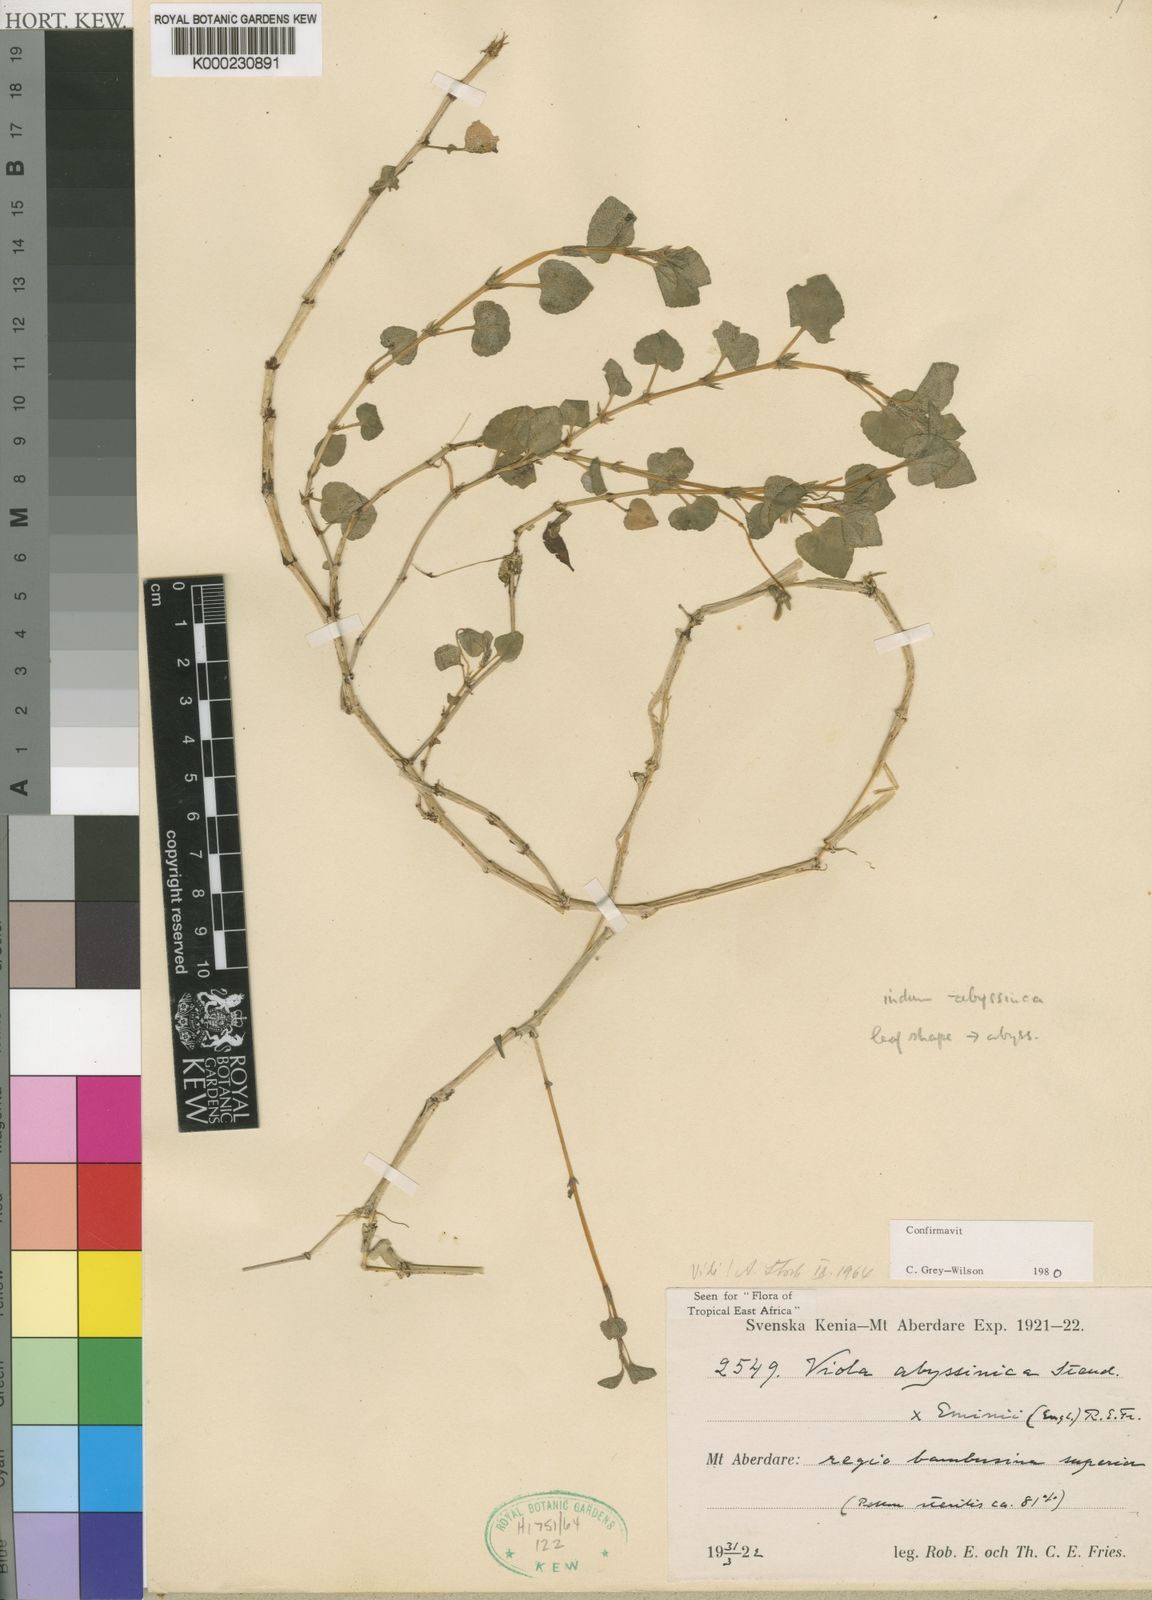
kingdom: Plantae
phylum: Tracheophyta
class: Magnoliopsida
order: Malpighiales
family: Violaceae
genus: Viola
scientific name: Viola abyssinica
